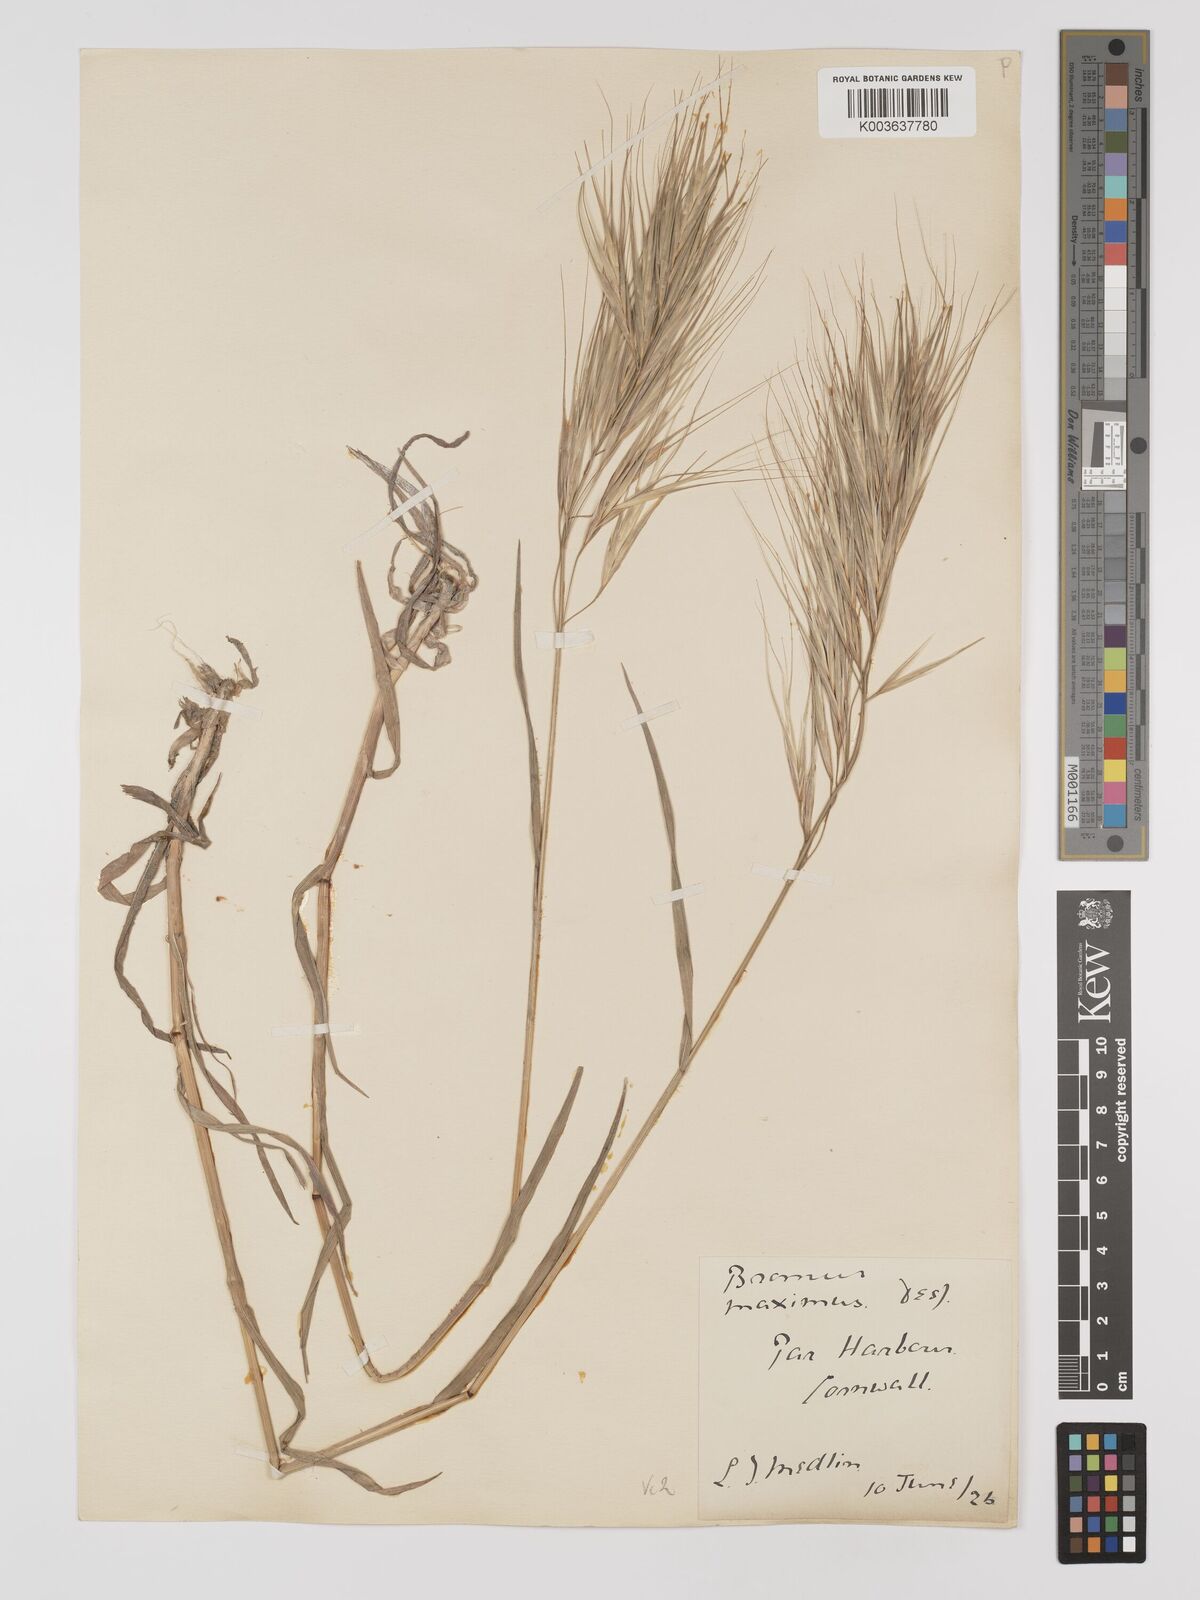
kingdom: Plantae
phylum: Tracheophyta
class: Liliopsida
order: Poales
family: Poaceae
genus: Bromus
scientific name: Bromus
